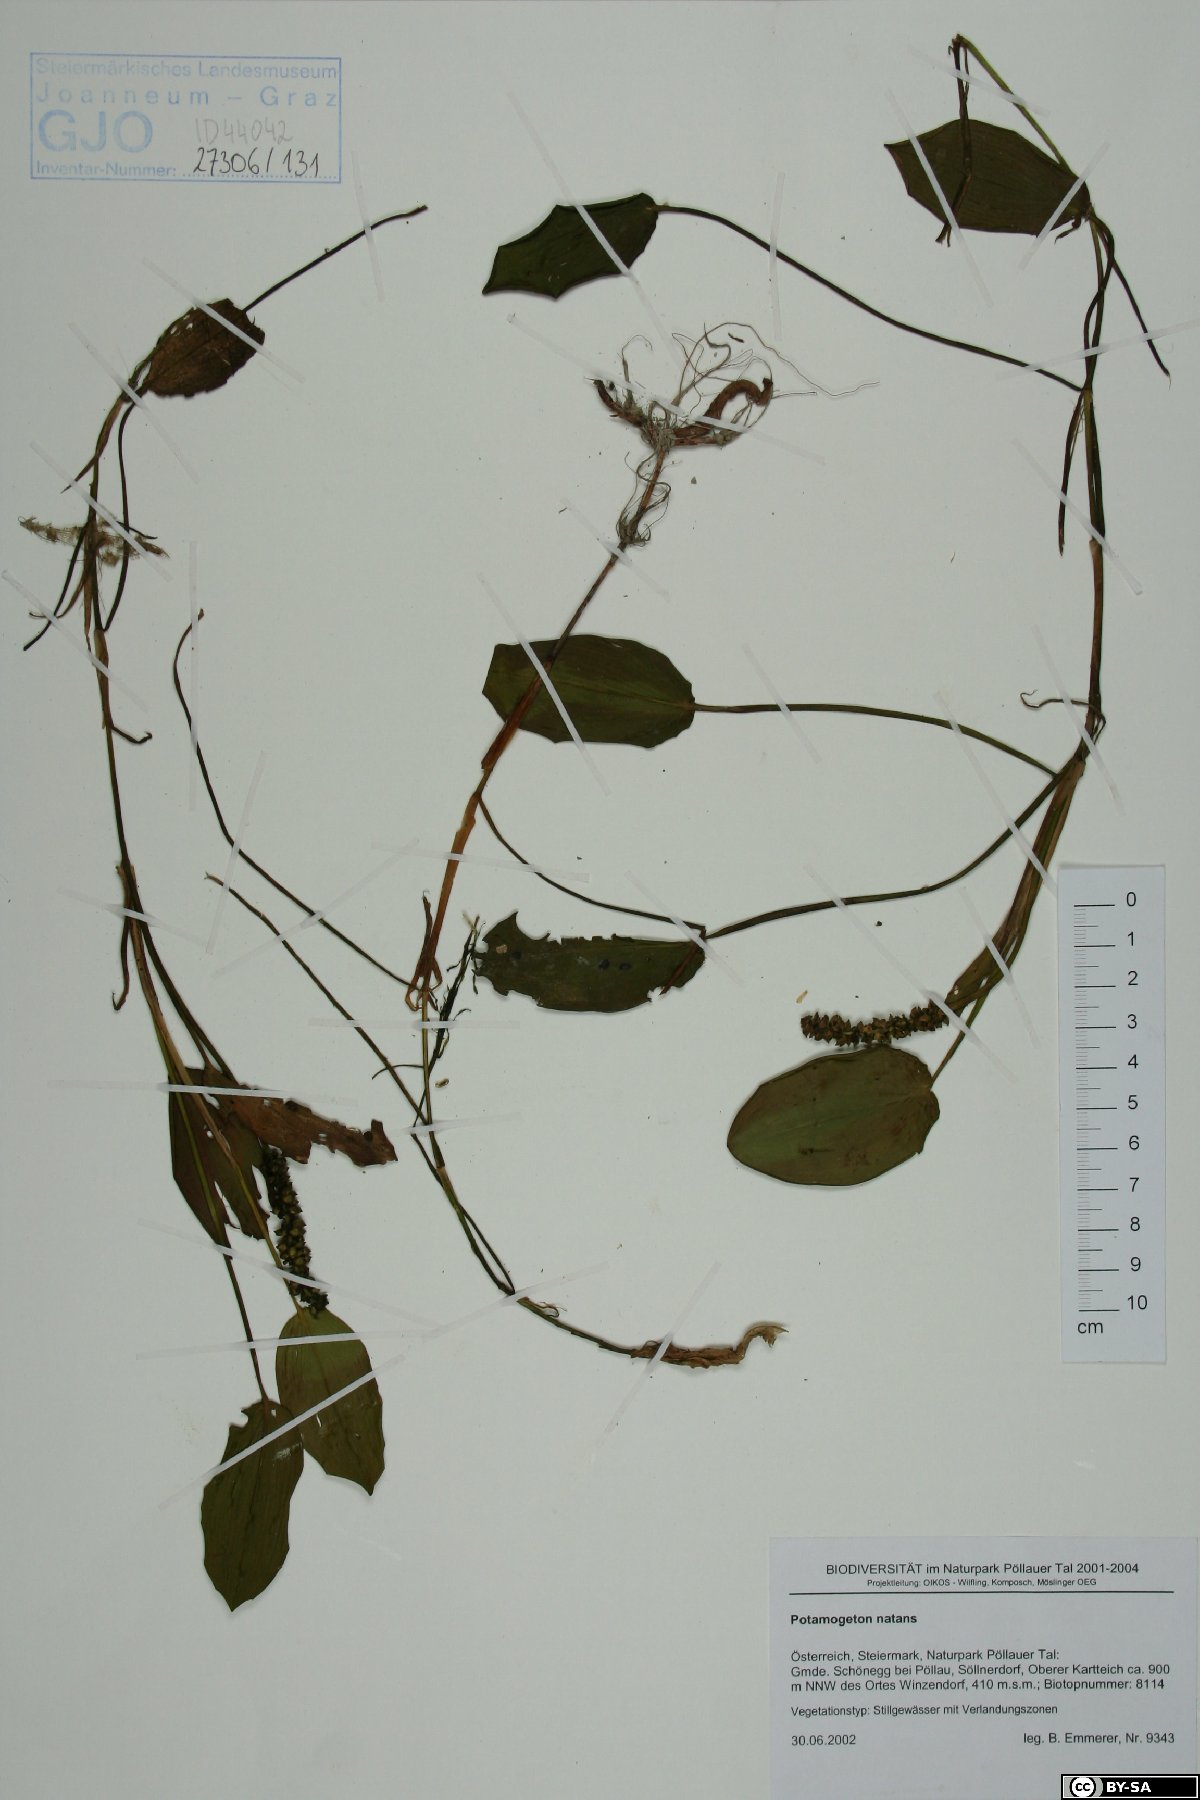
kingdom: Plantae
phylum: Tracheophyta
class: Liliopsida
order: Alismatales
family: Potamogetonaceae
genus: Potamogeton
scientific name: Potamogeton natans
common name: Broad-leaved pondweed
